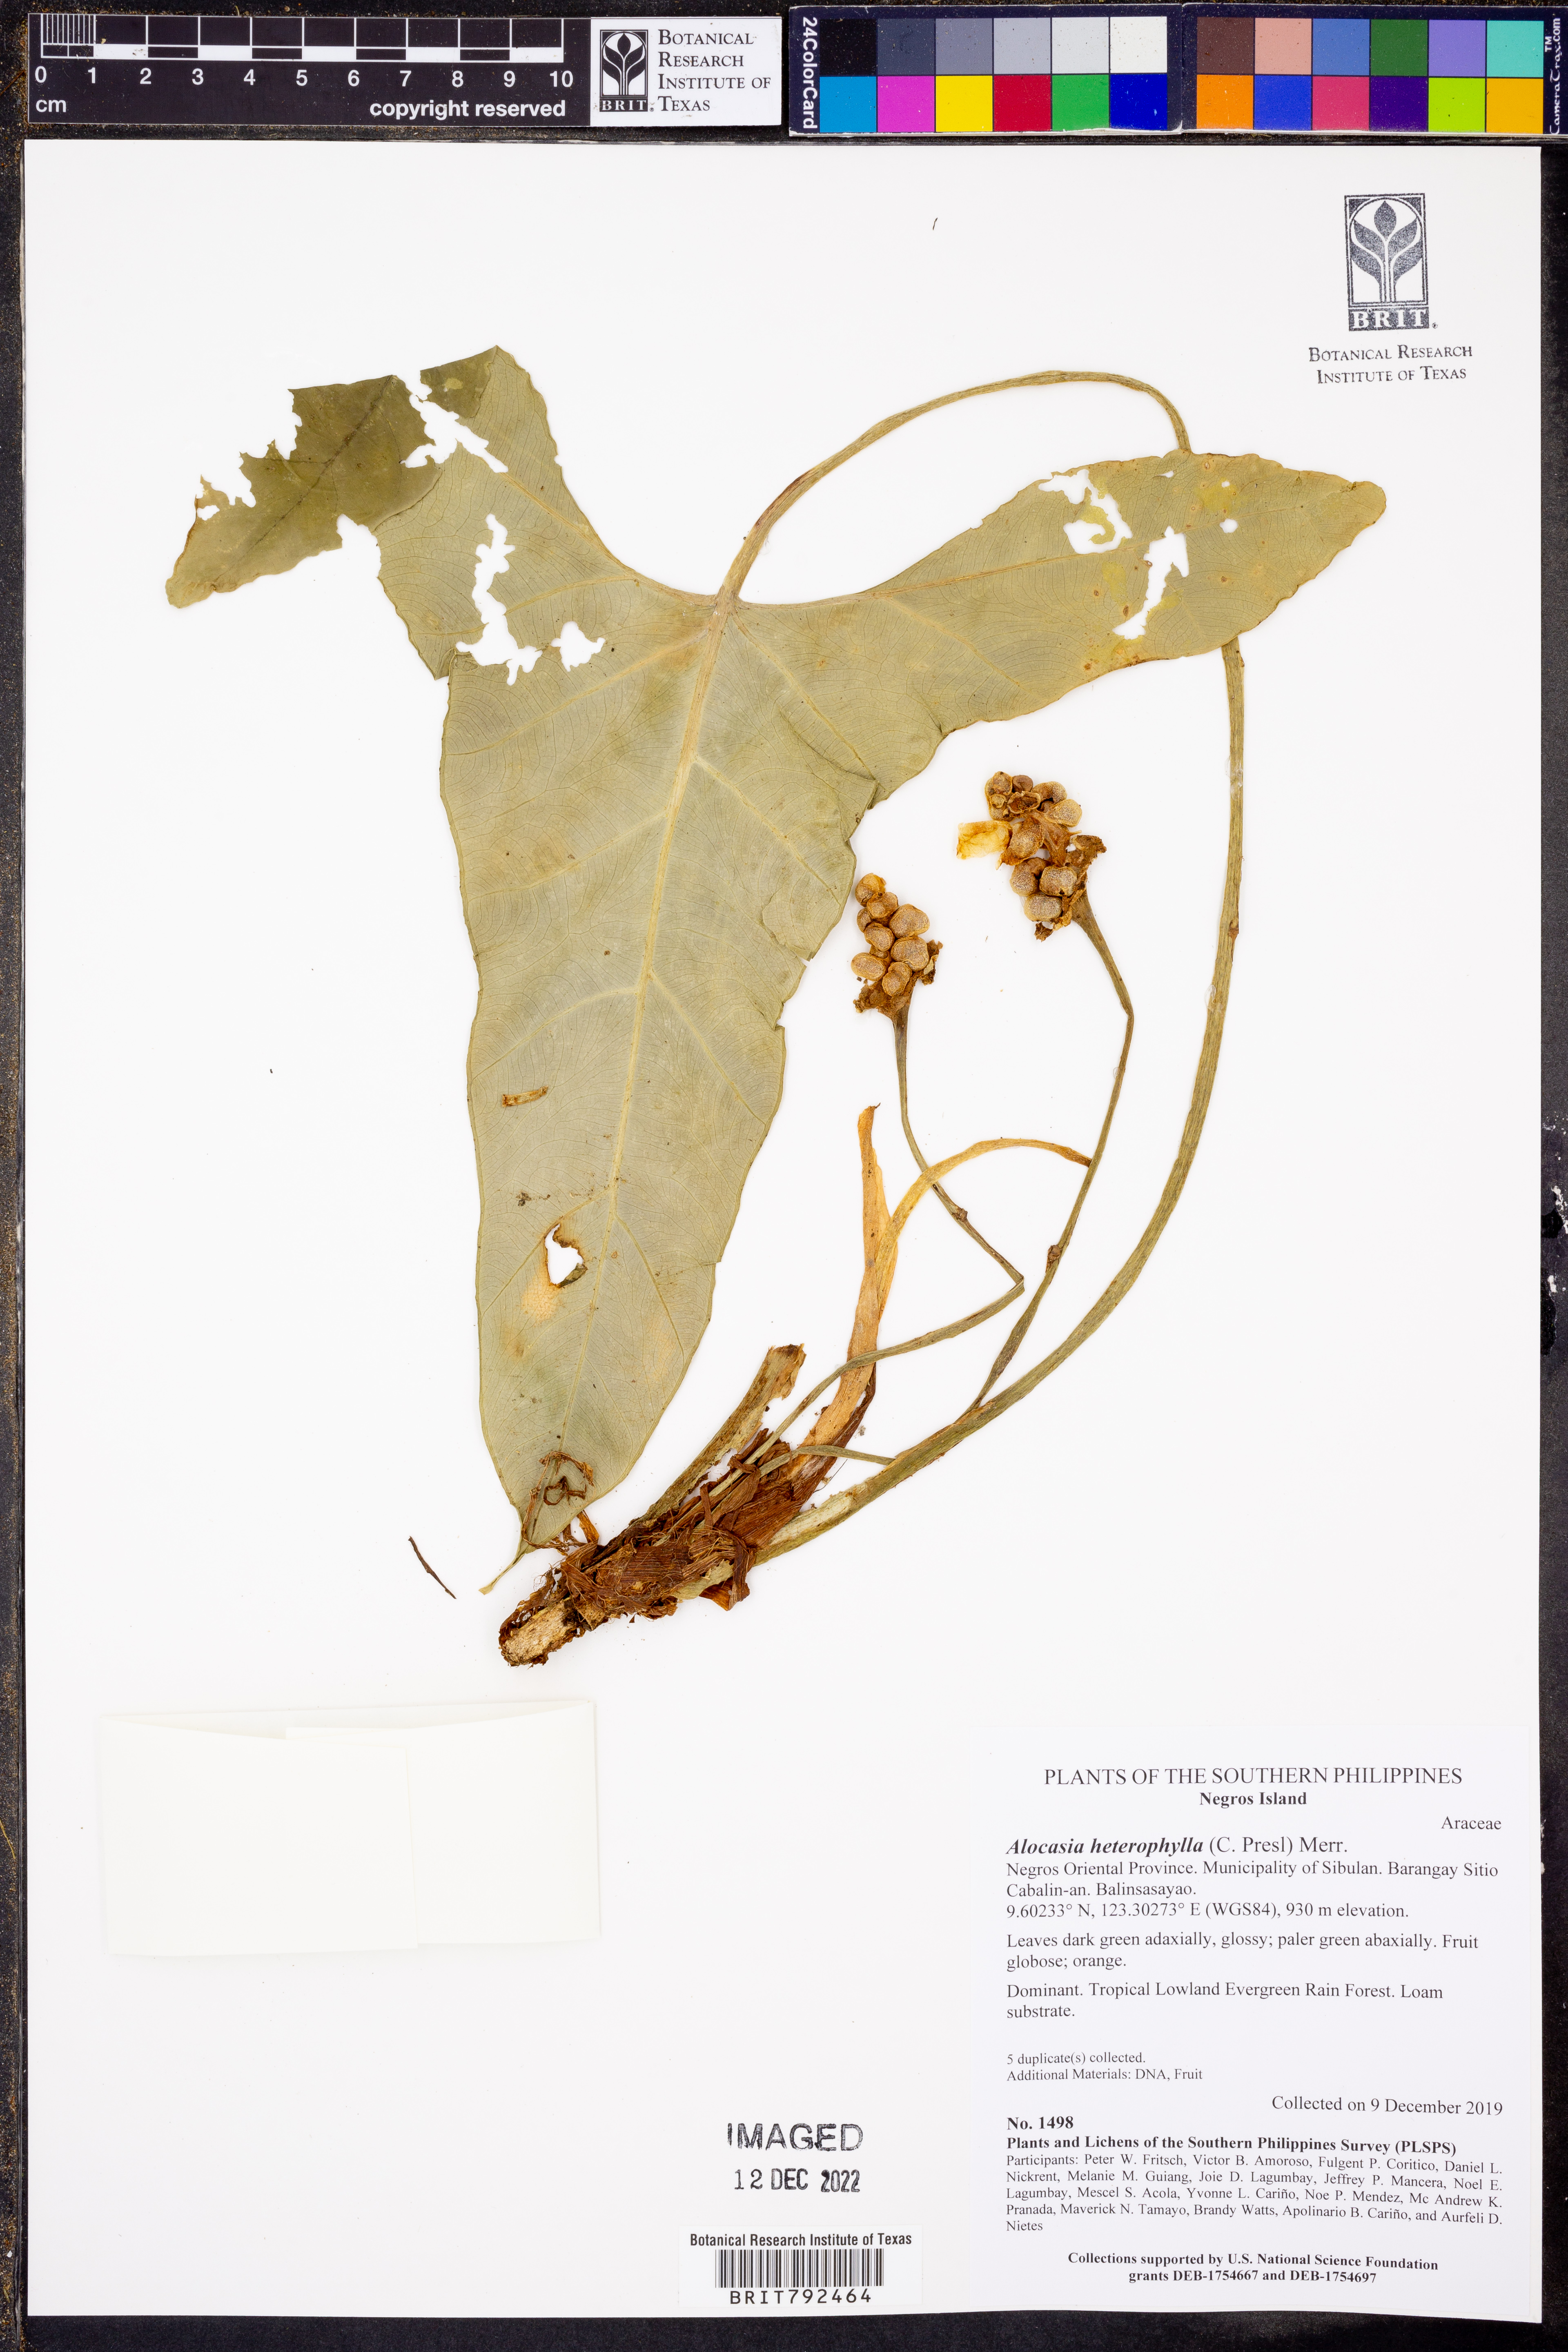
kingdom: Plantae
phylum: Tracheophyta
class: Liliopsida
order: Alismatales
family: Araceae
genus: Alocasia
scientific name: Alocasia heterophylla
